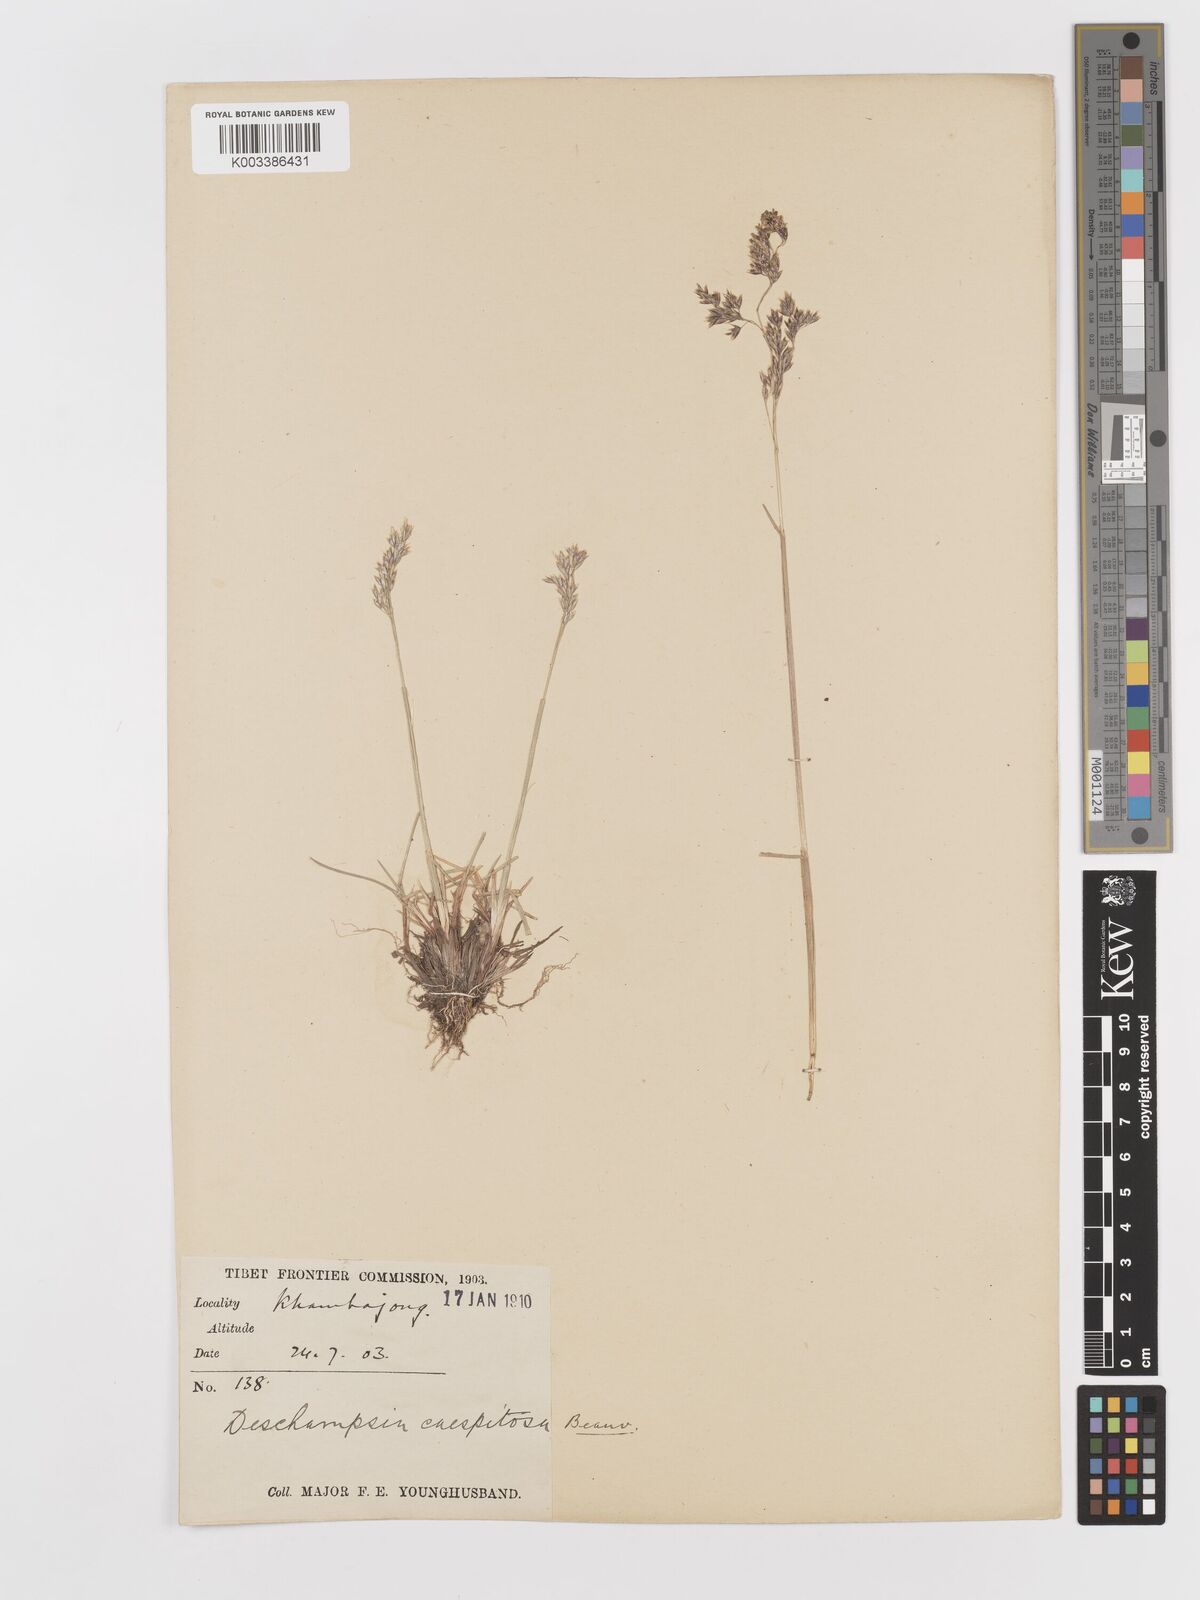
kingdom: Plantae
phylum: Tracheophyta
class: Liliopsida
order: Poales
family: Poaceae
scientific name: Poaceae
